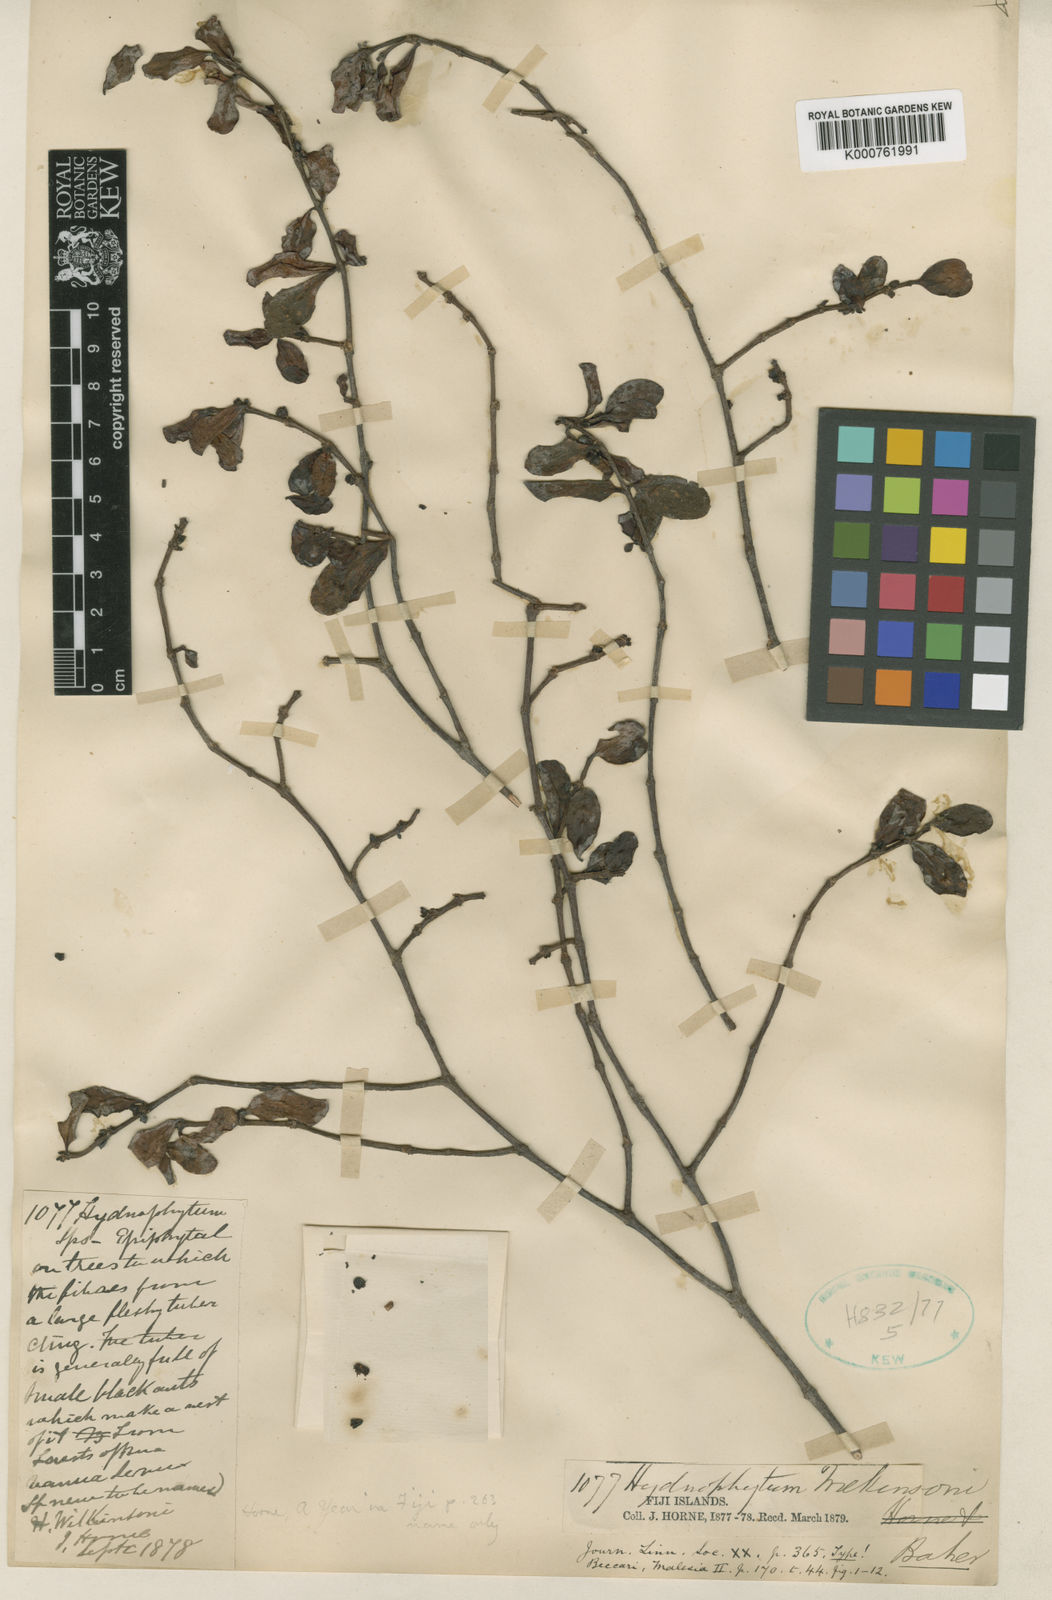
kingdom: Plantae
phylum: Tracheophyta
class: Magnoliopsida
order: Gentianales
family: Rubiaceae
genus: Hydnophytum
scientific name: Hydnophytum longiflorum
